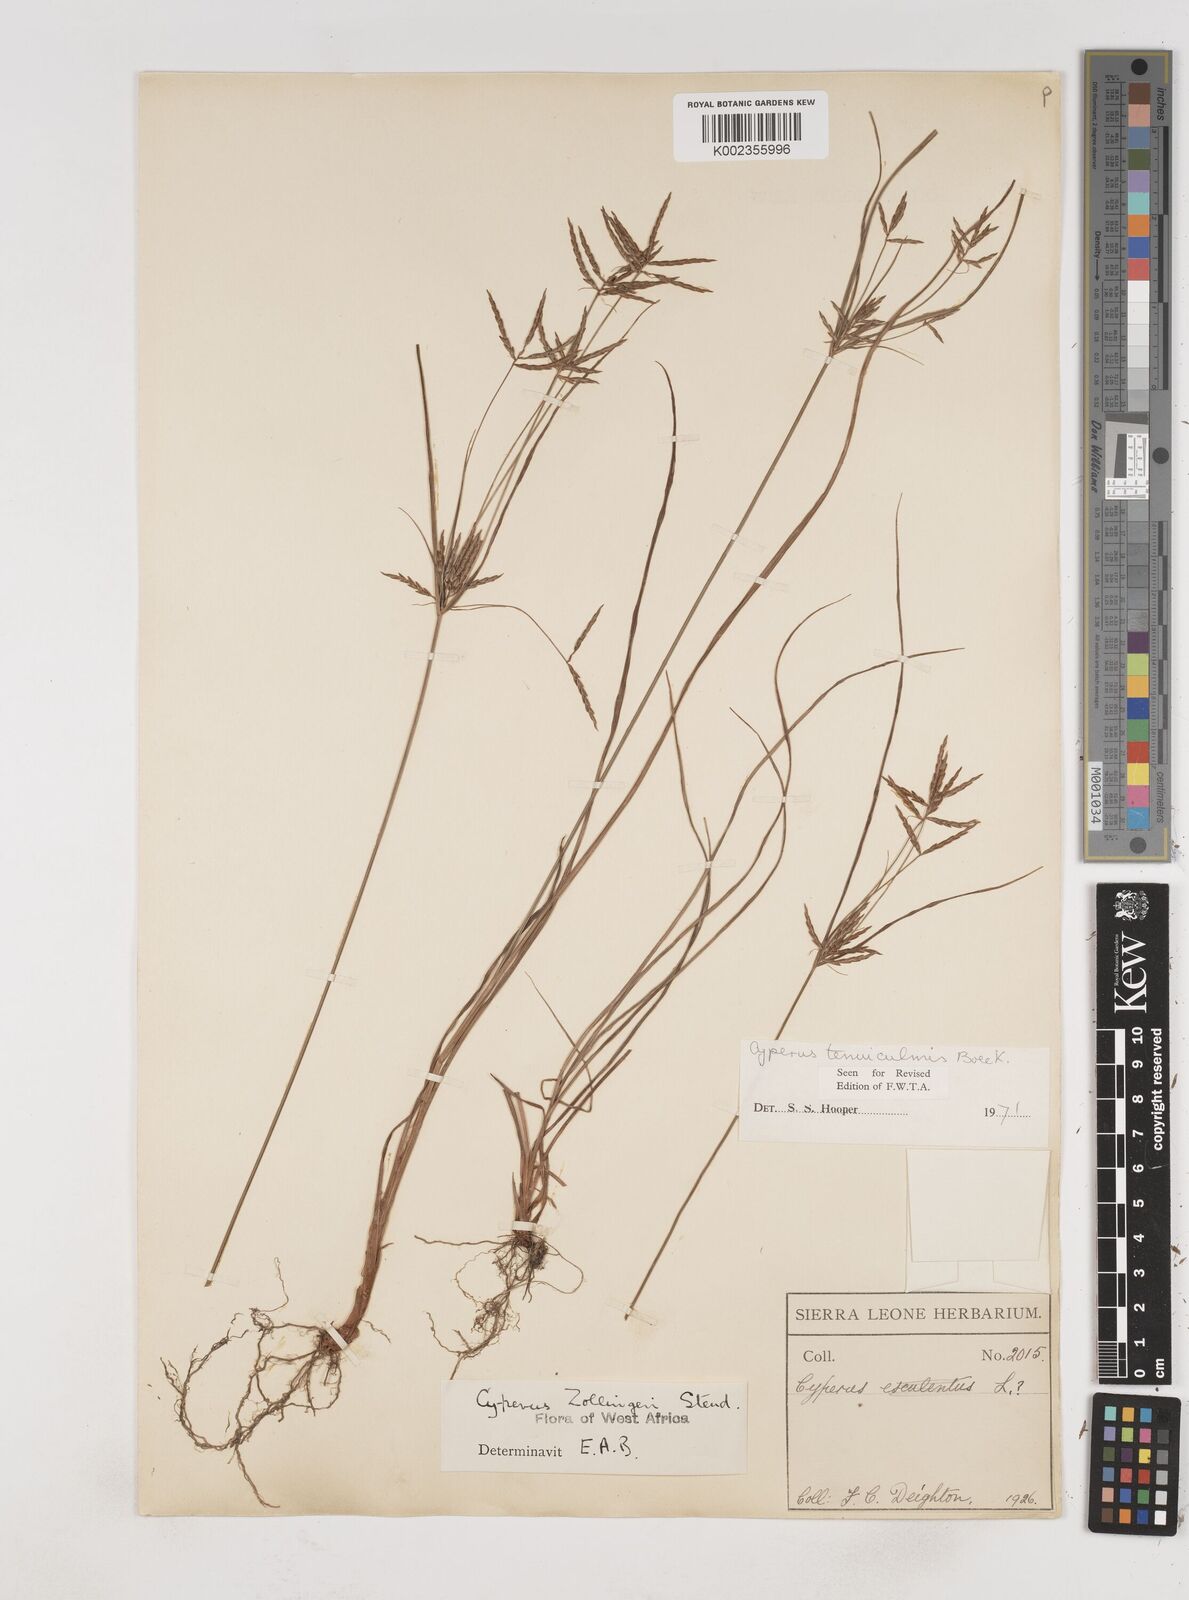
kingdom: Plantae
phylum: Tracheophyta
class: Liliopsida
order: Poales
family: Cyperaceae
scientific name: Cyperaceae
